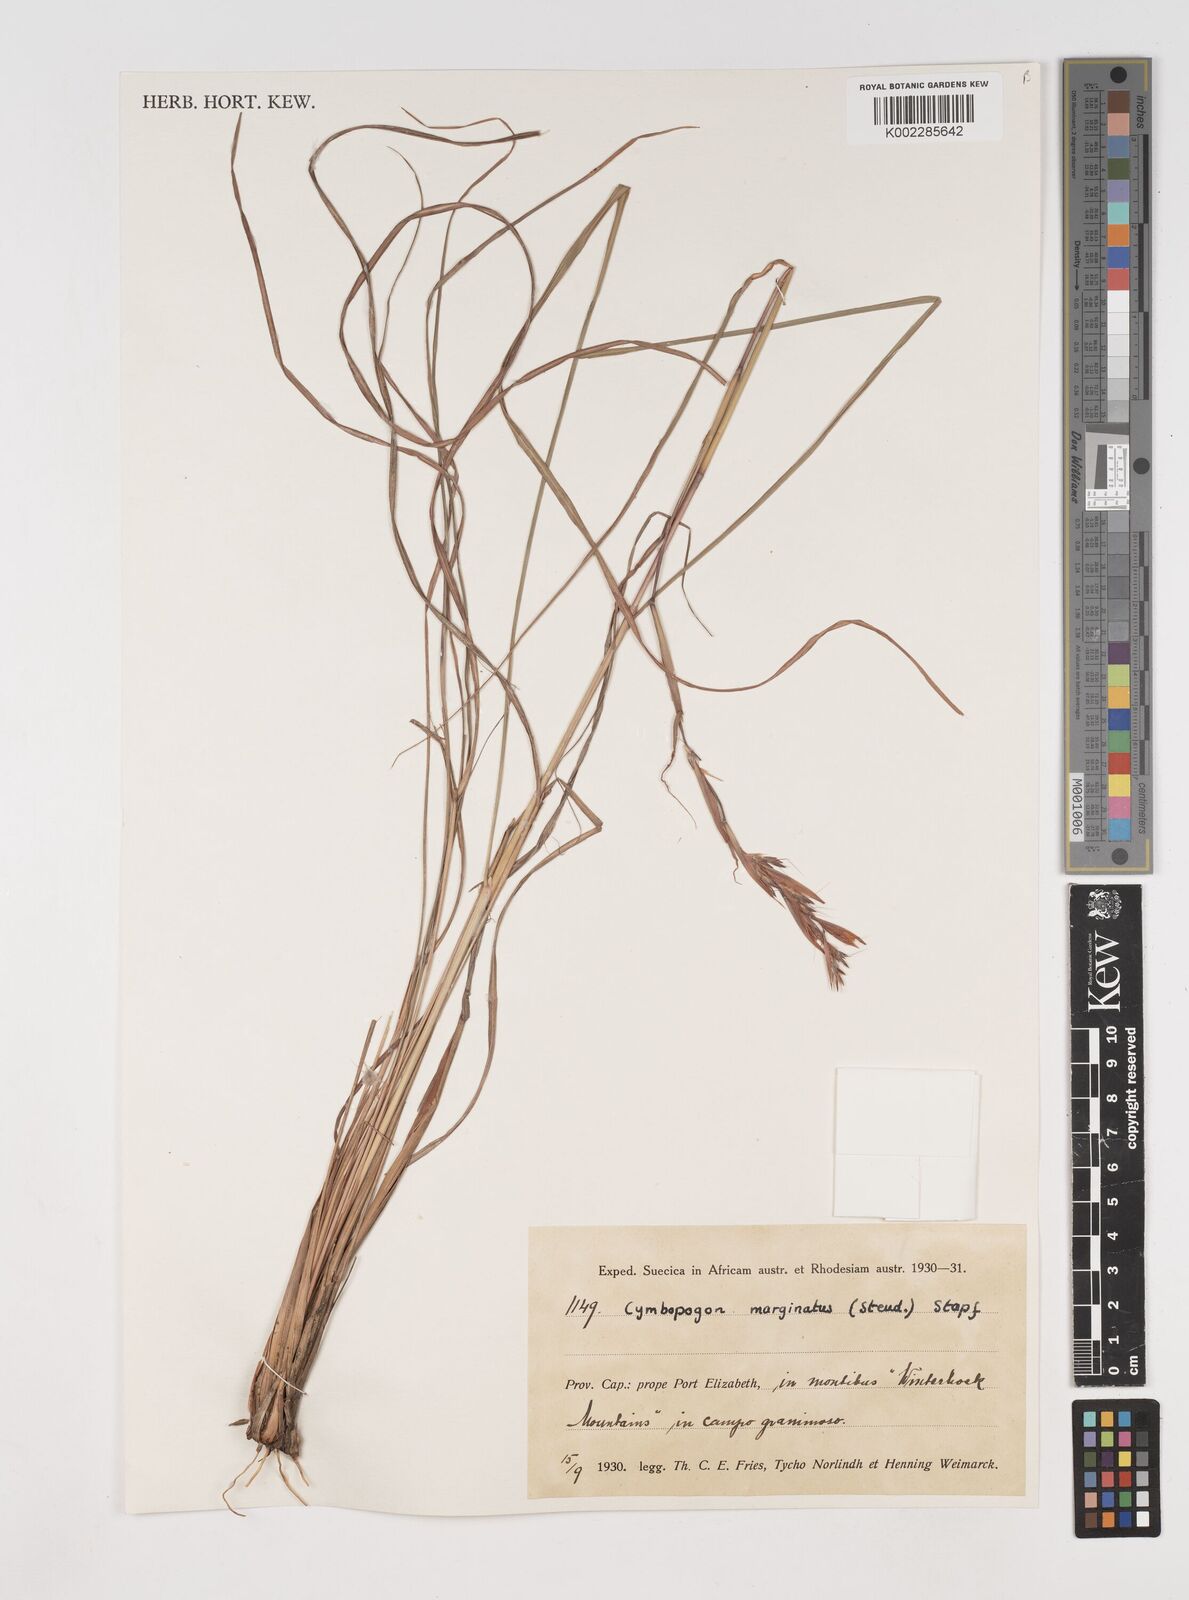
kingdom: Plantae
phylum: Tracheophyta
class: Liliopsida
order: Poales
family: Poaceae
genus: Cymbopogon
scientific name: Cymbopogon marginatus
